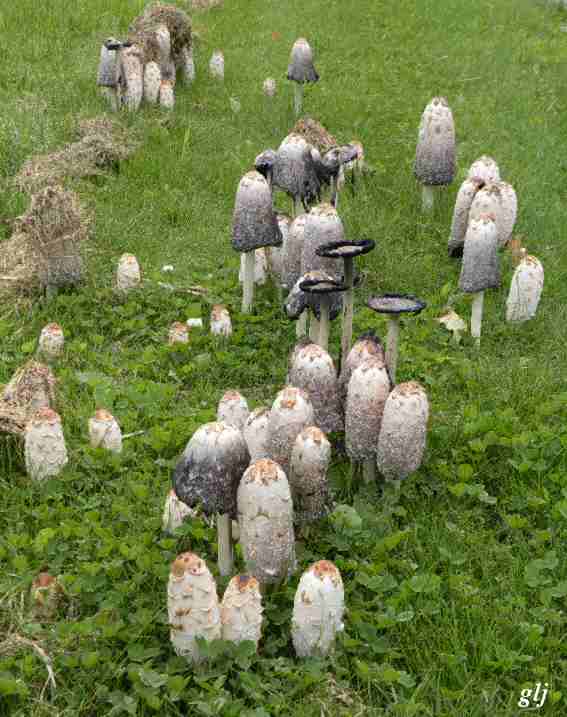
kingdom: Fungi
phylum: Basidiomycota
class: Agaricomycetes
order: Agaricales
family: Agaricaceae
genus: Coprinus
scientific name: Coprinus comatus
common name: stor parykhat
